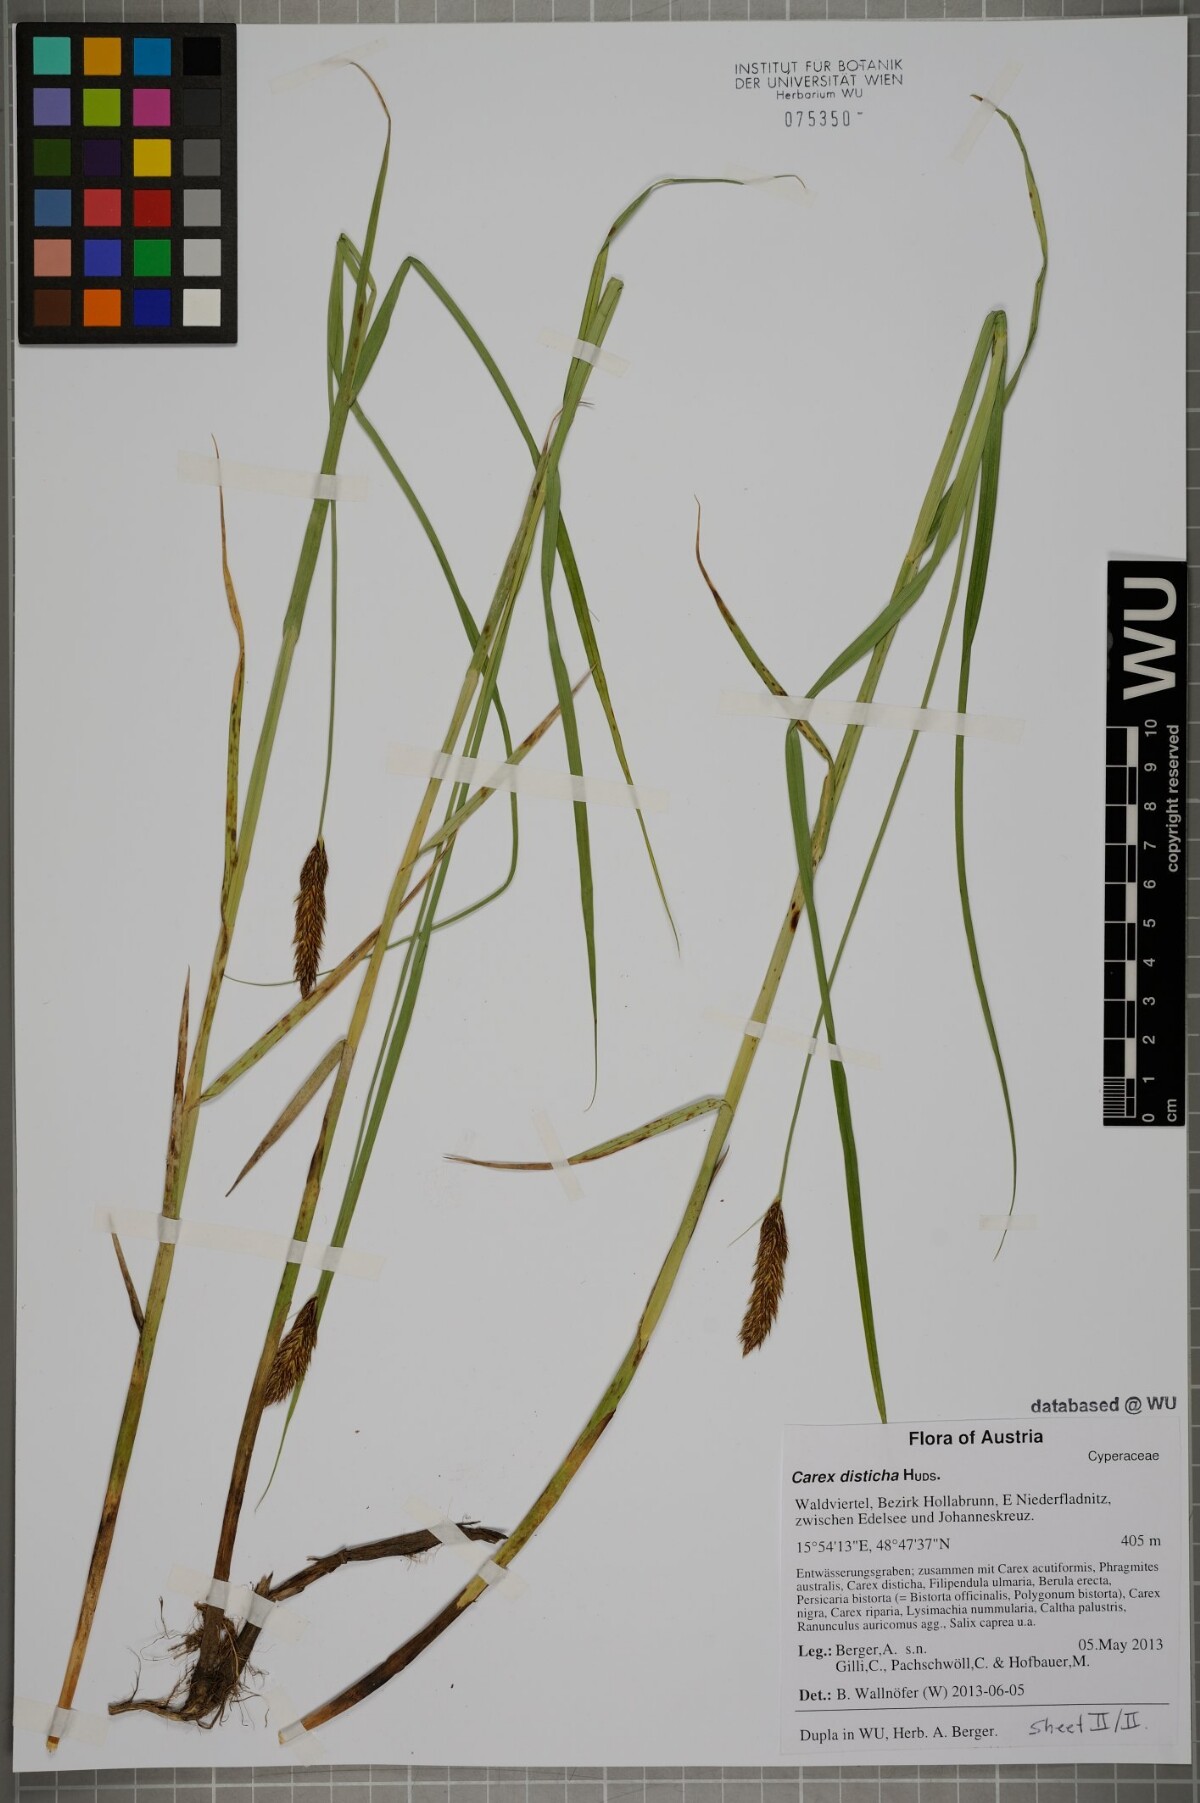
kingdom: Plantae
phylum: Tracheophyta
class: Liliopsida
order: Poales
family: Cyperaceae
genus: Carex
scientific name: Carex disticha
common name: Brown sedge
